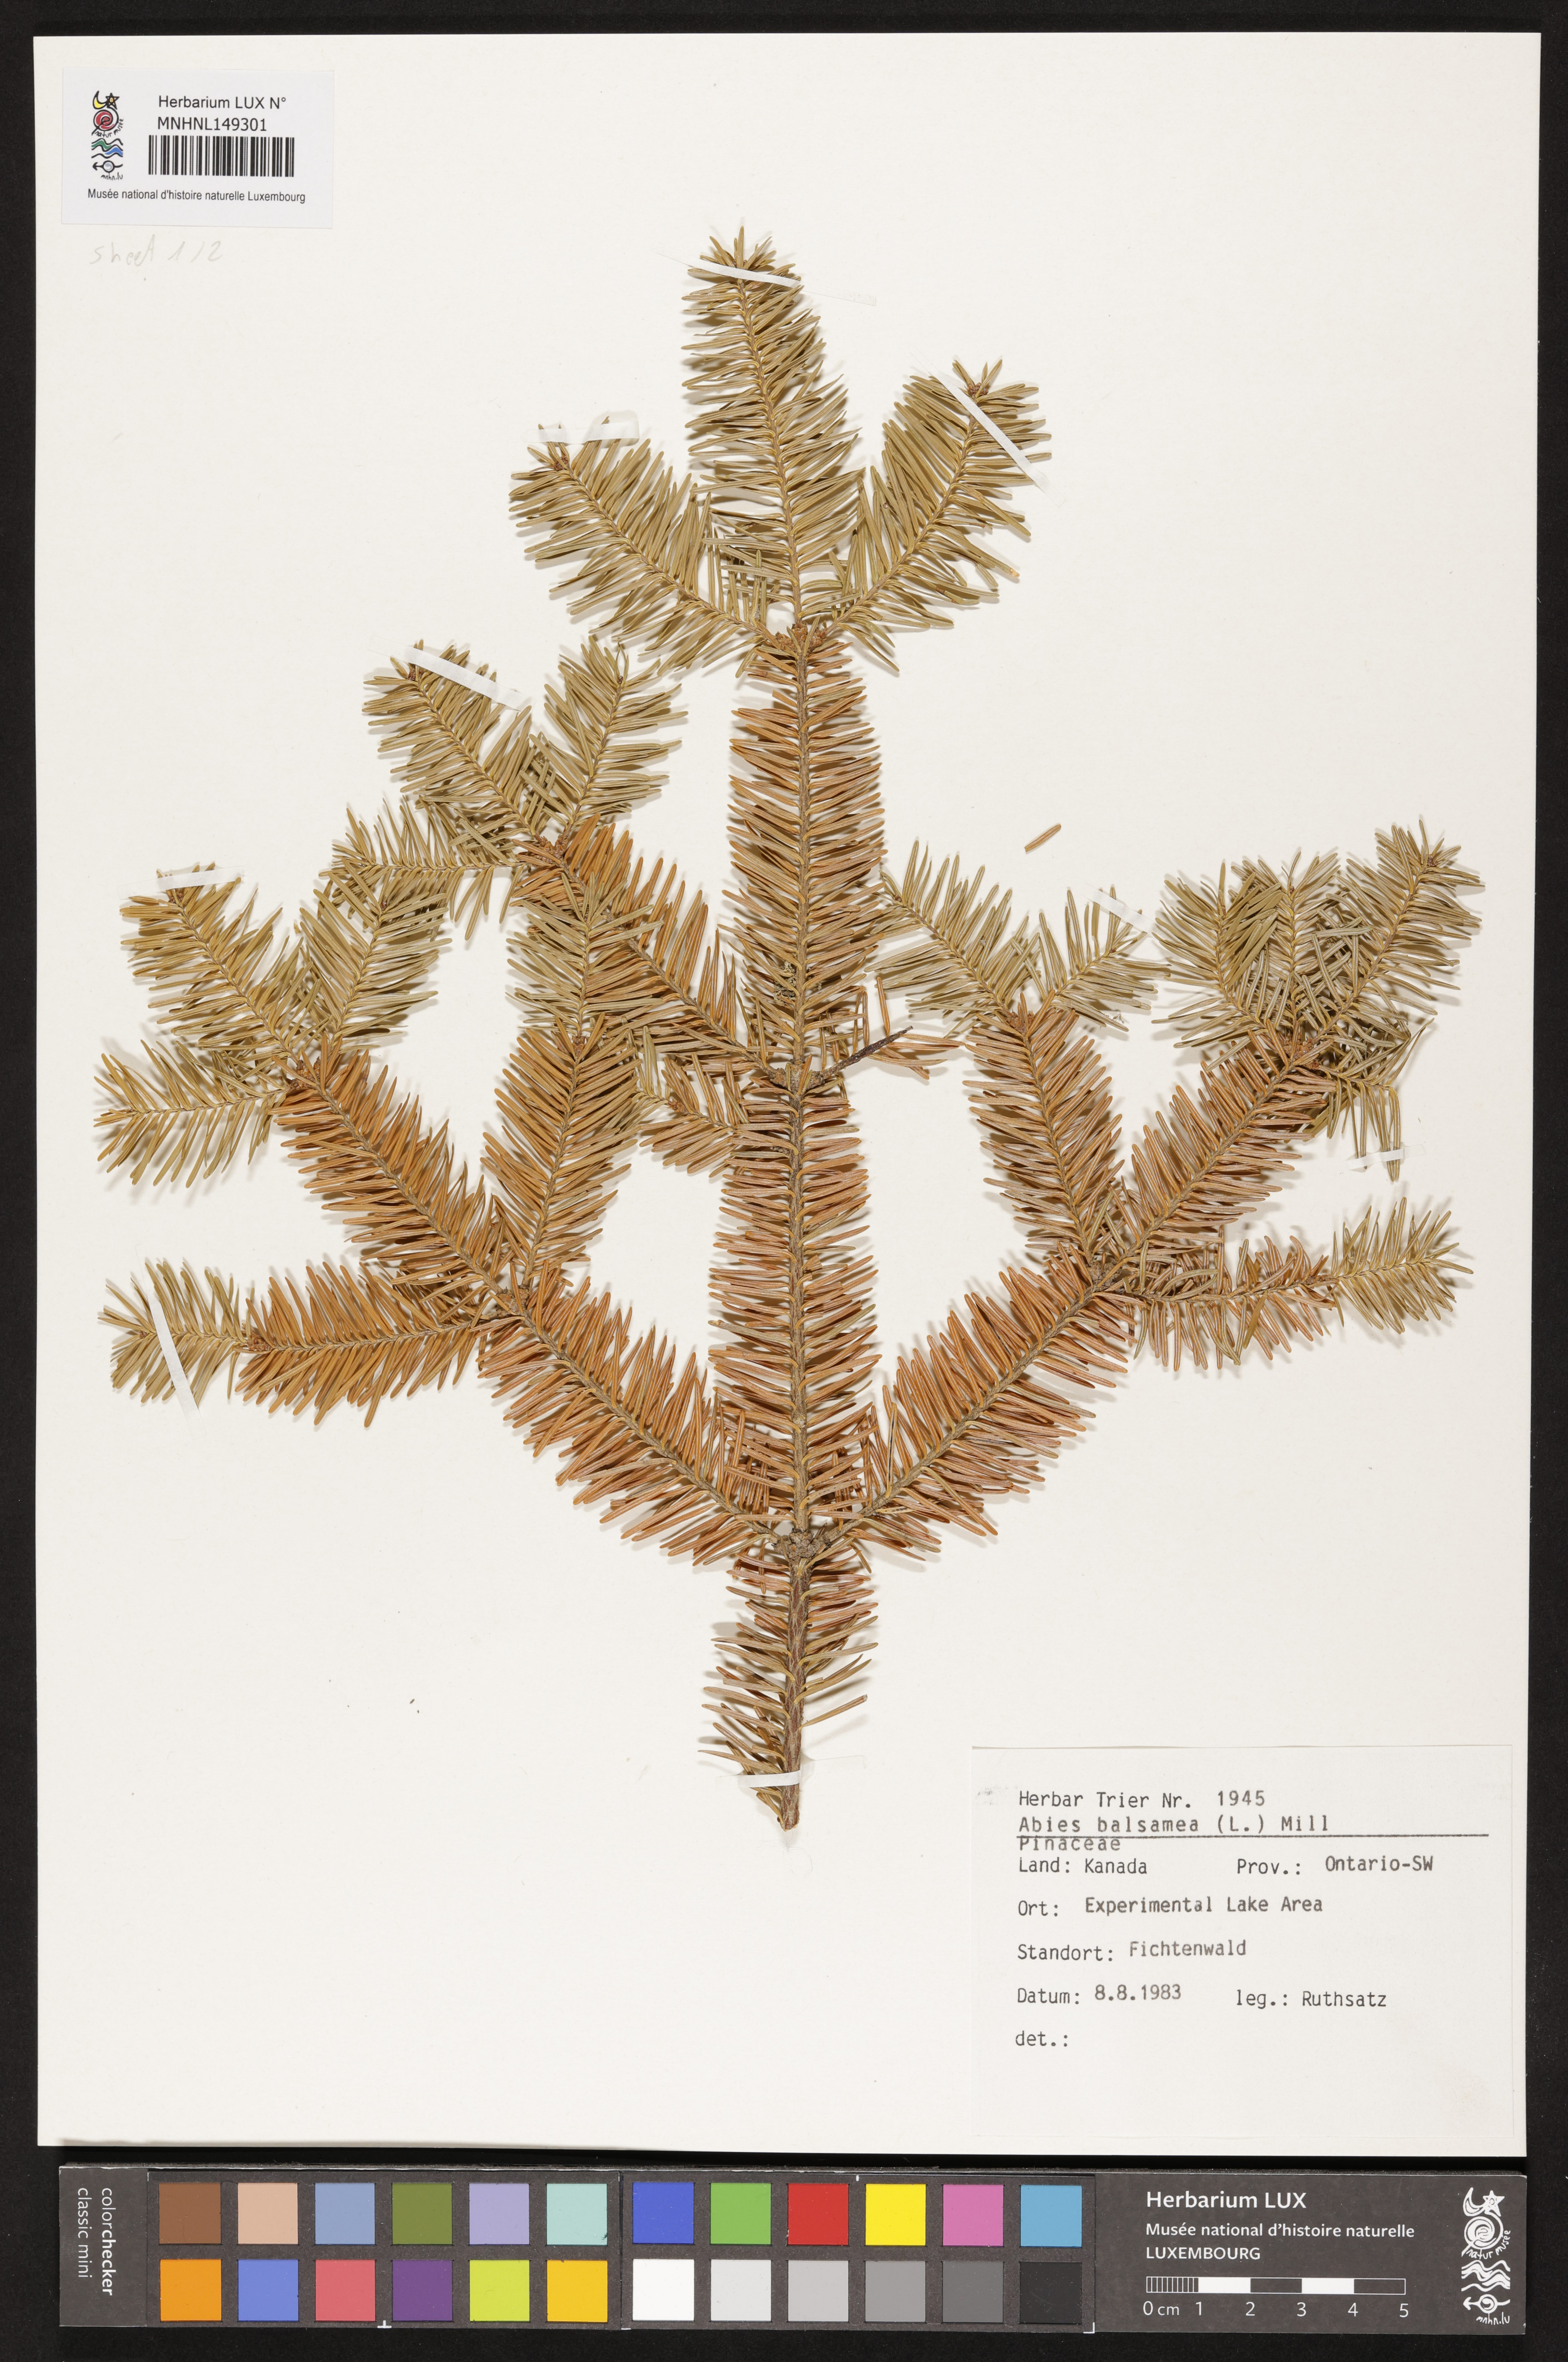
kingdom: Plantae
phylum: Tracheophyta
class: Pinopsida
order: Pinales
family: Pinaceae
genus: Abies
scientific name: Abies balsamea
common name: Balsam fir
